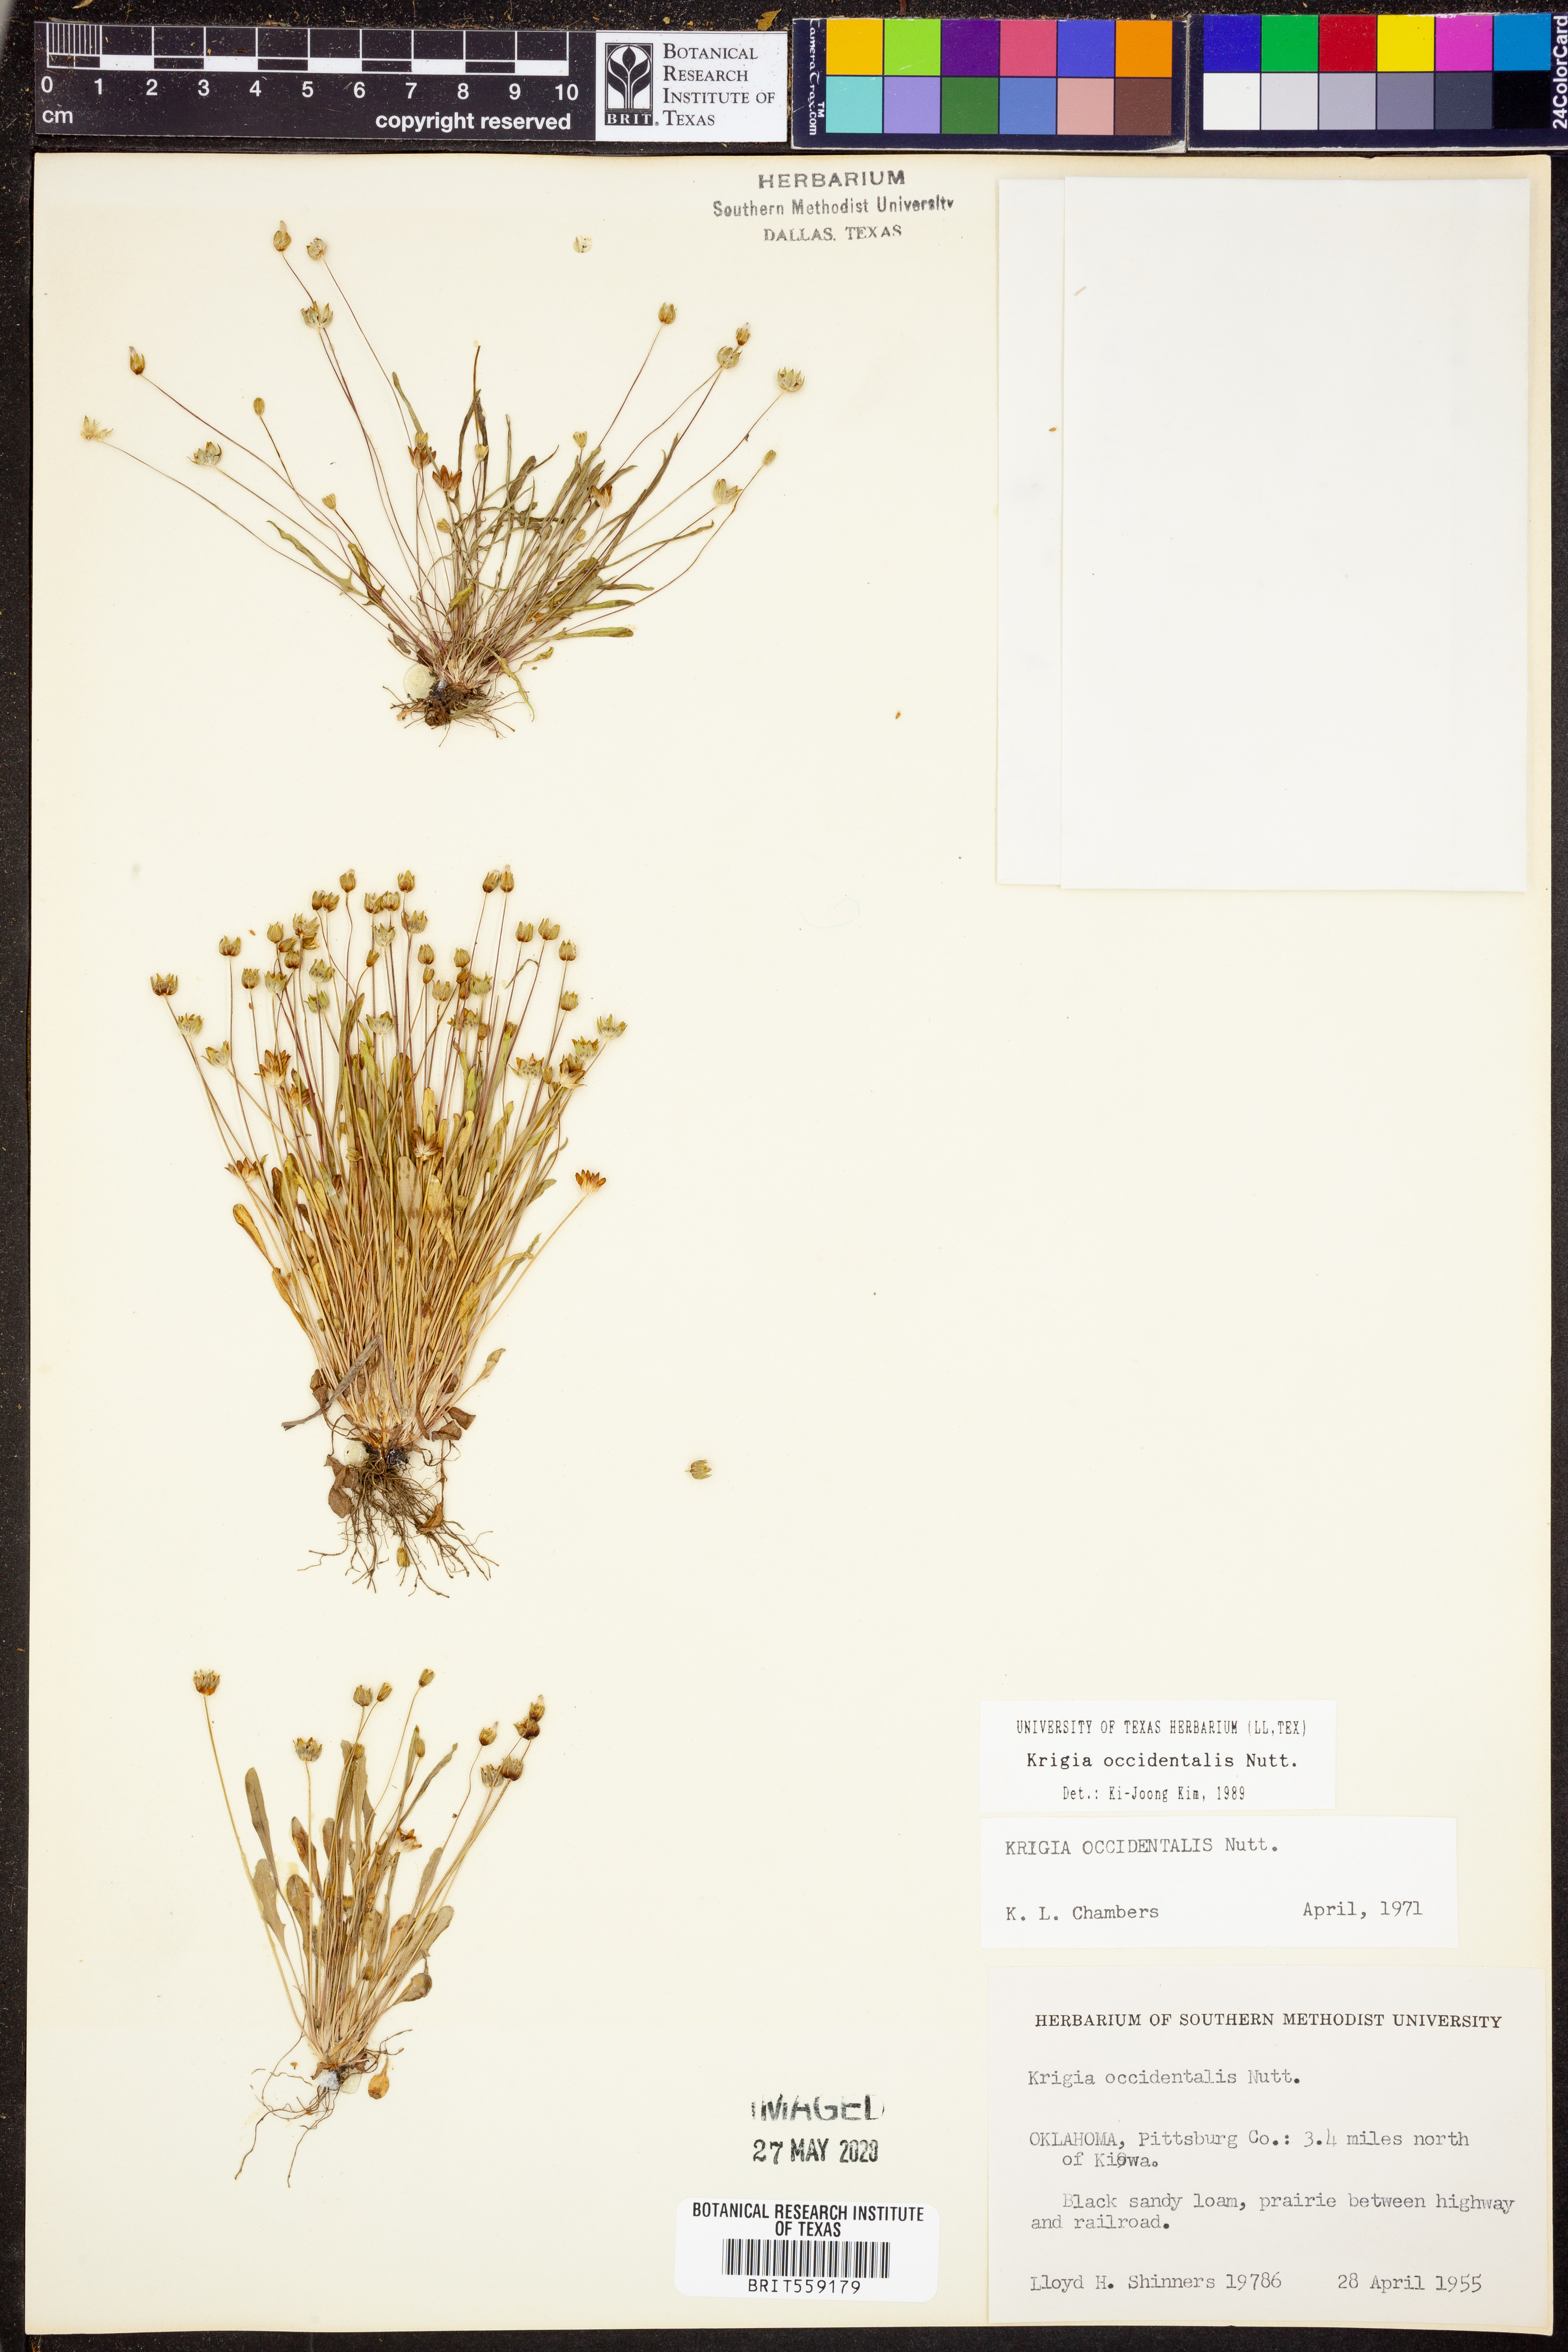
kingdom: Plantae
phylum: Tracheophyta
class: Magnoliopsida
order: Asterales
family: Asteraceae
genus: Krigia
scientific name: Krigia occidentalis
